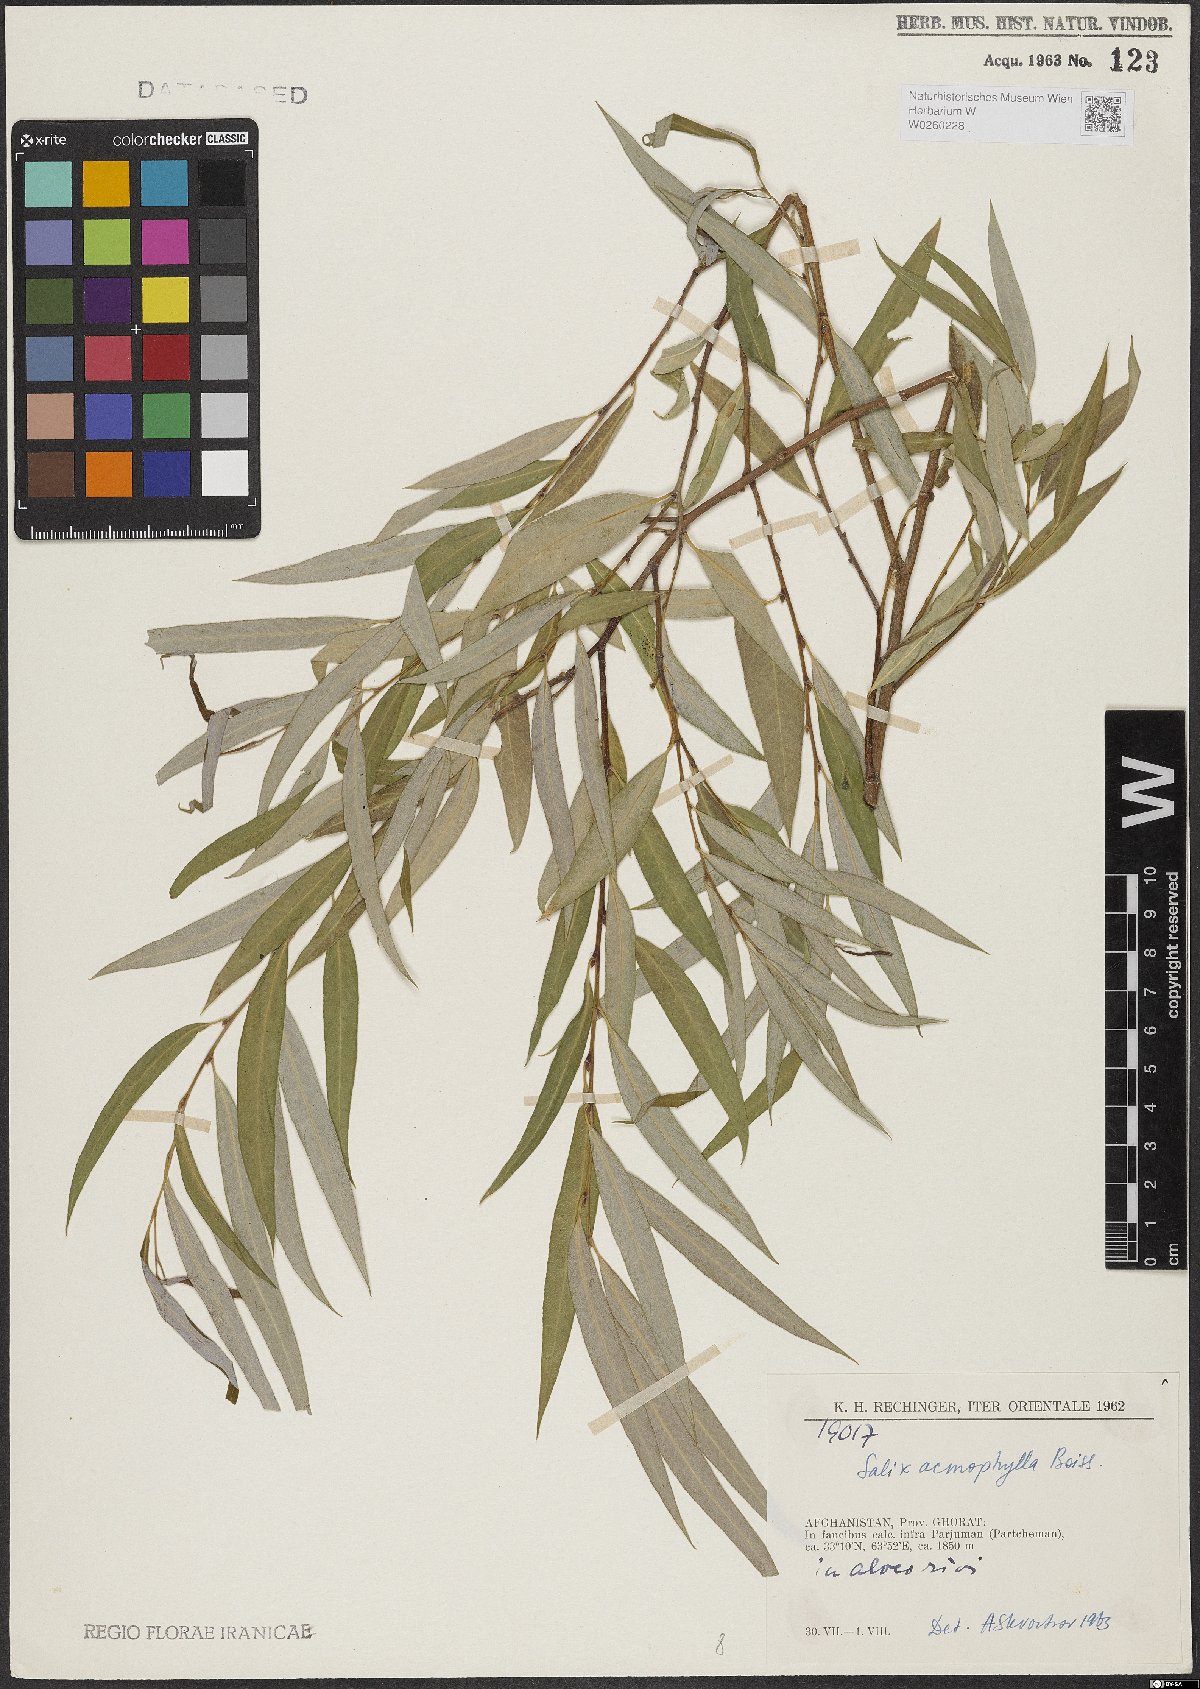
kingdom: Plantae
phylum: Tracheophyta
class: Magnoliopsida
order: Malpighiales
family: Salicaceae
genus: Salix
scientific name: Salix acmophylla
